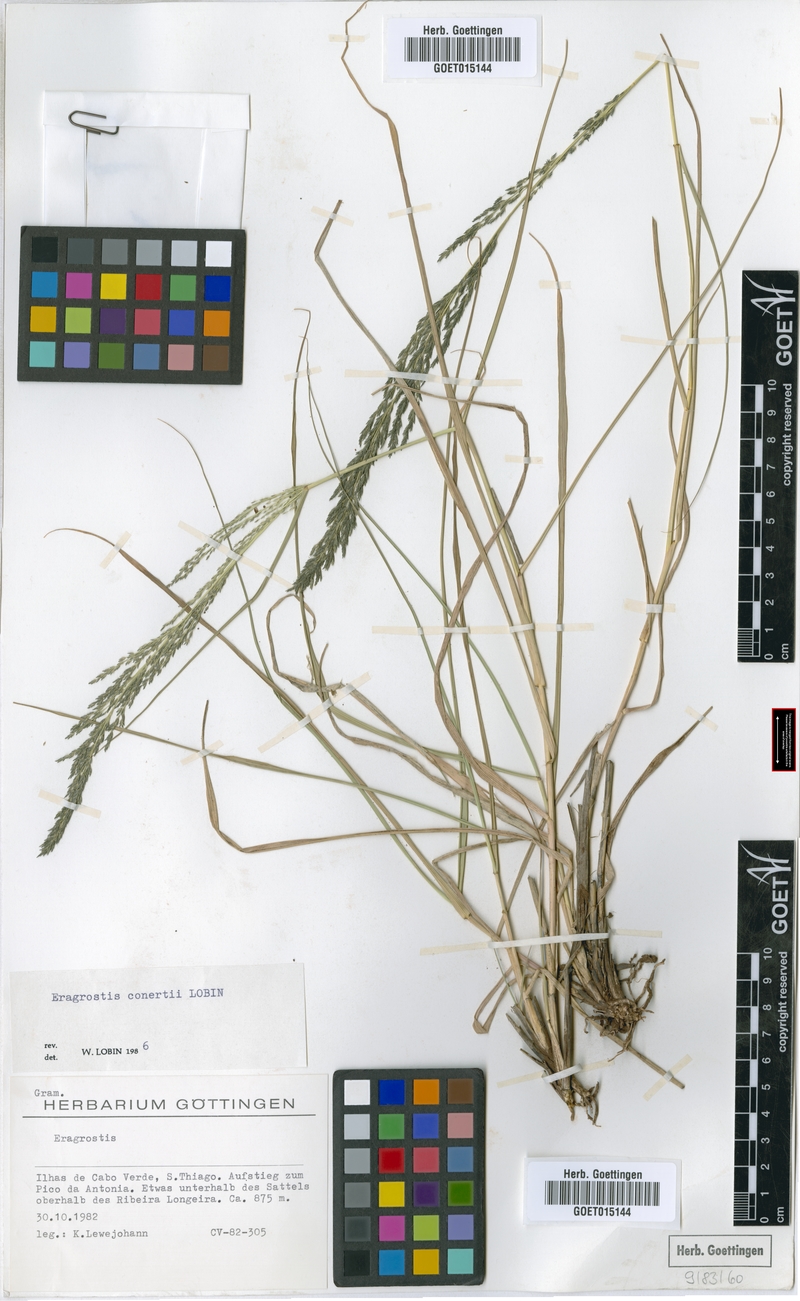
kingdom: Plantae
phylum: Tracheophyta
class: Liliopsida
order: Poales
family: Poaceae
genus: Eragrostis
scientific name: Eragrostis conertii
